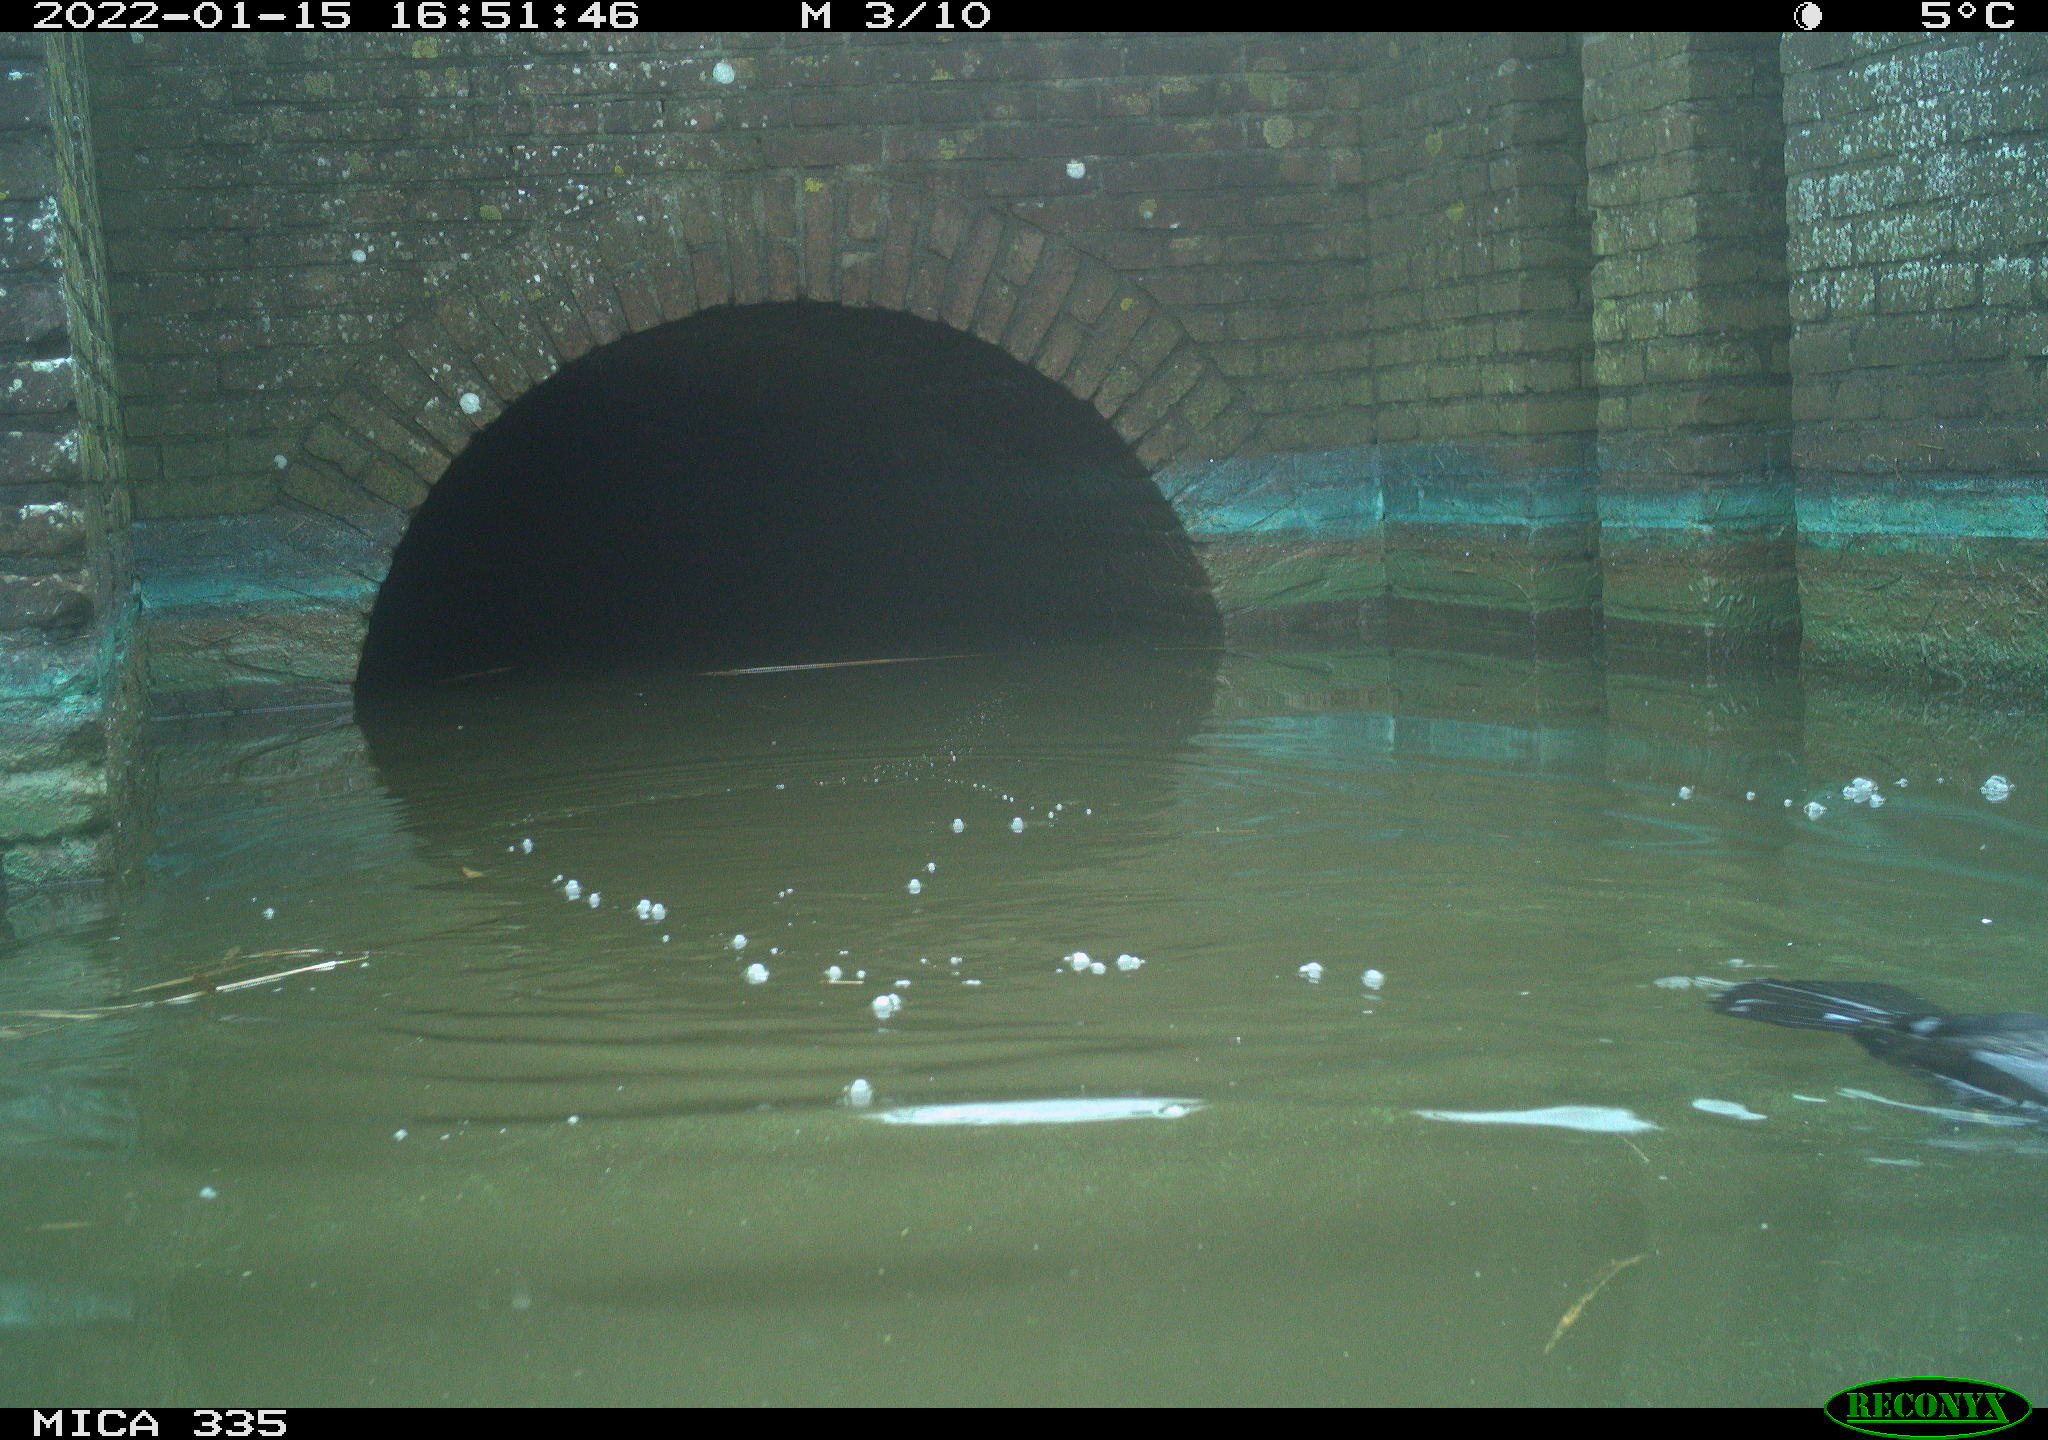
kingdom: Animalia
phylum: Chordata
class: Aves
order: Suliformes
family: Phalacrocoracidae
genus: Phalacrocorax
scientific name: Phalacrocorax carbo
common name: Great cormorant
